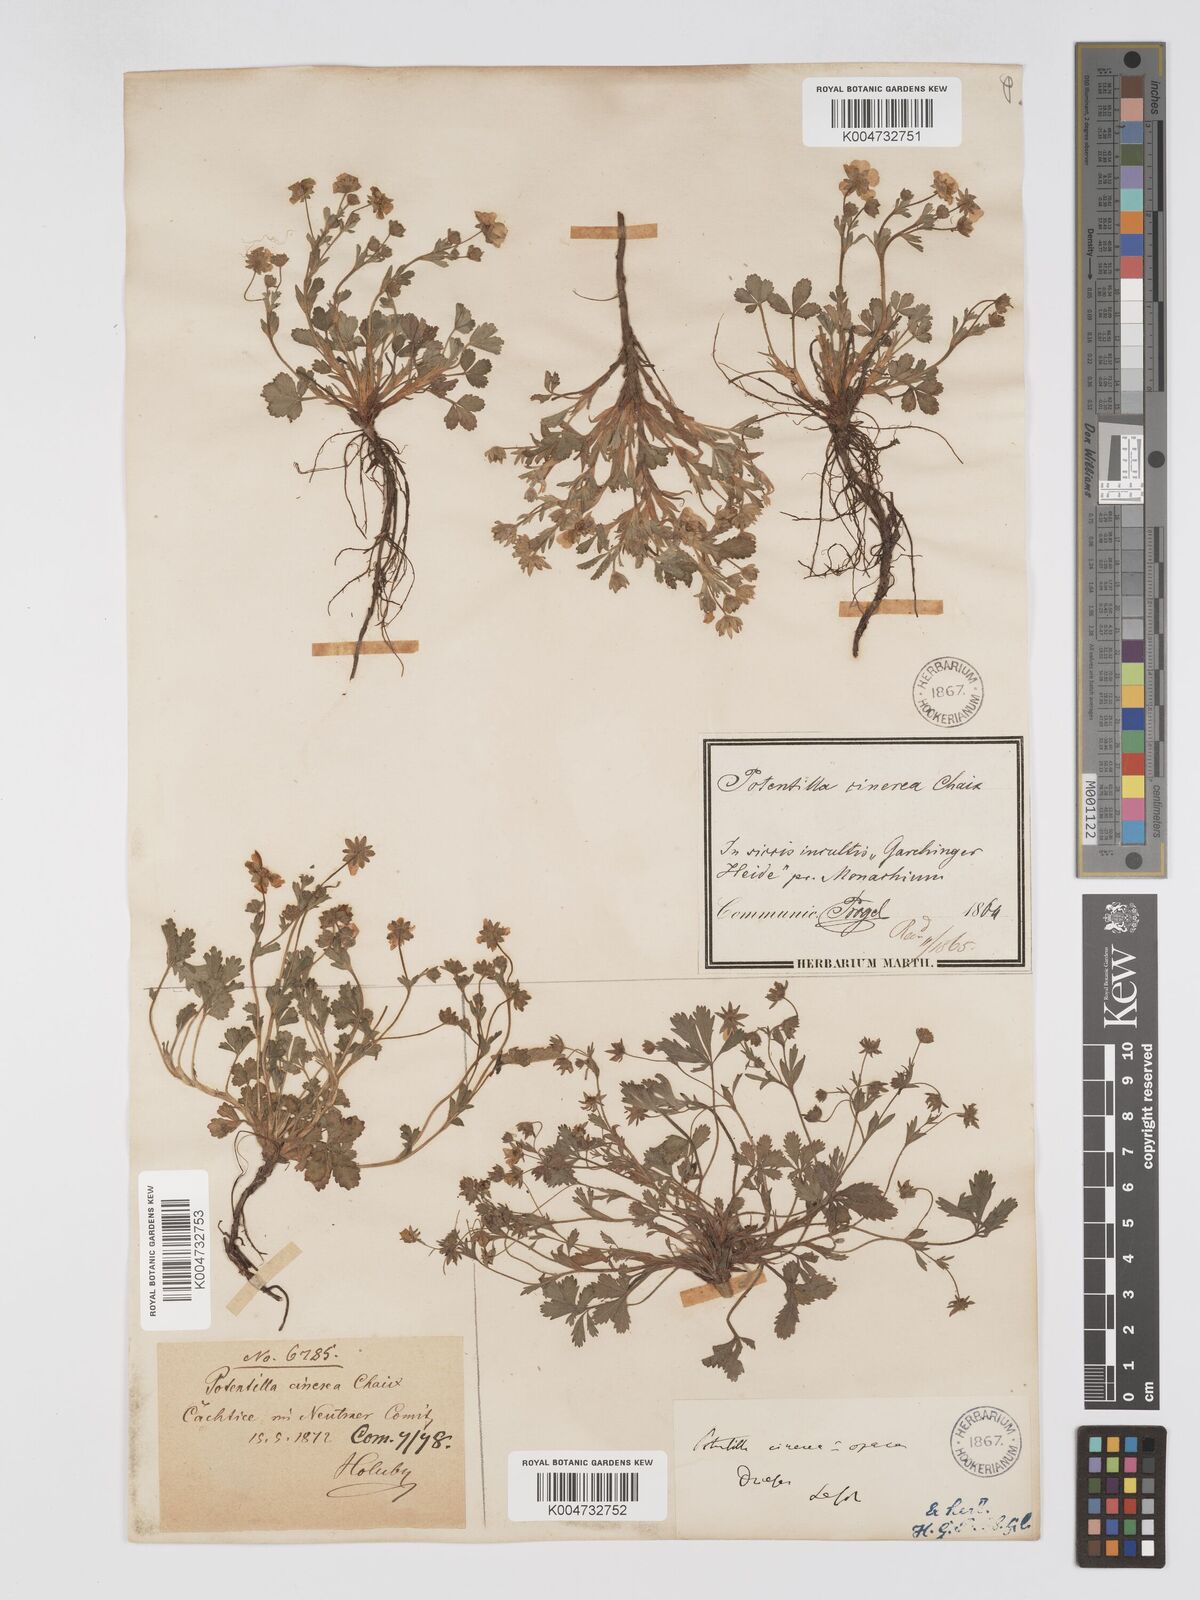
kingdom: Plantae
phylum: Tracheophyta
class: Magnoliopsida
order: Rosales
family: Rosaceae
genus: Potentilla
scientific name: Potentilla
